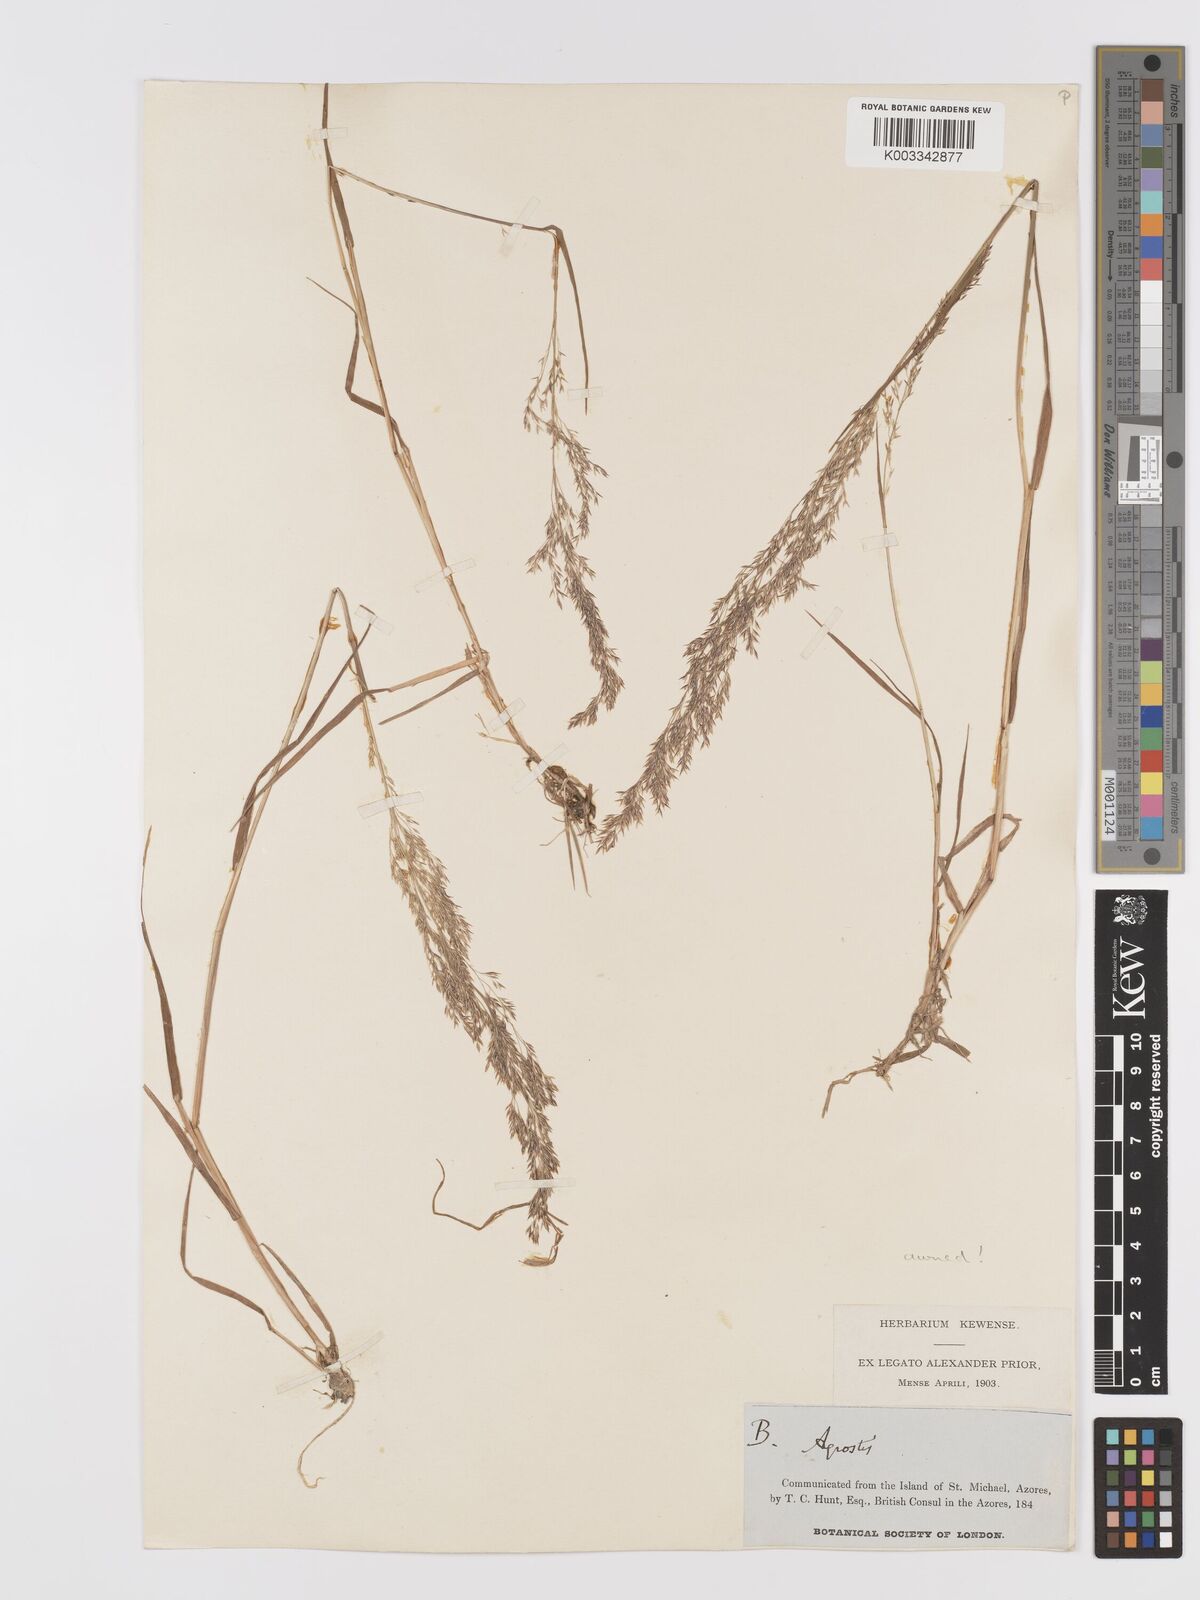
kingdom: Plantae
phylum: Tracheophyta
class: Liliopsida
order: Poales
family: Poaceae
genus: Agrostis
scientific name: Agrostis castellana
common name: Highland bent
